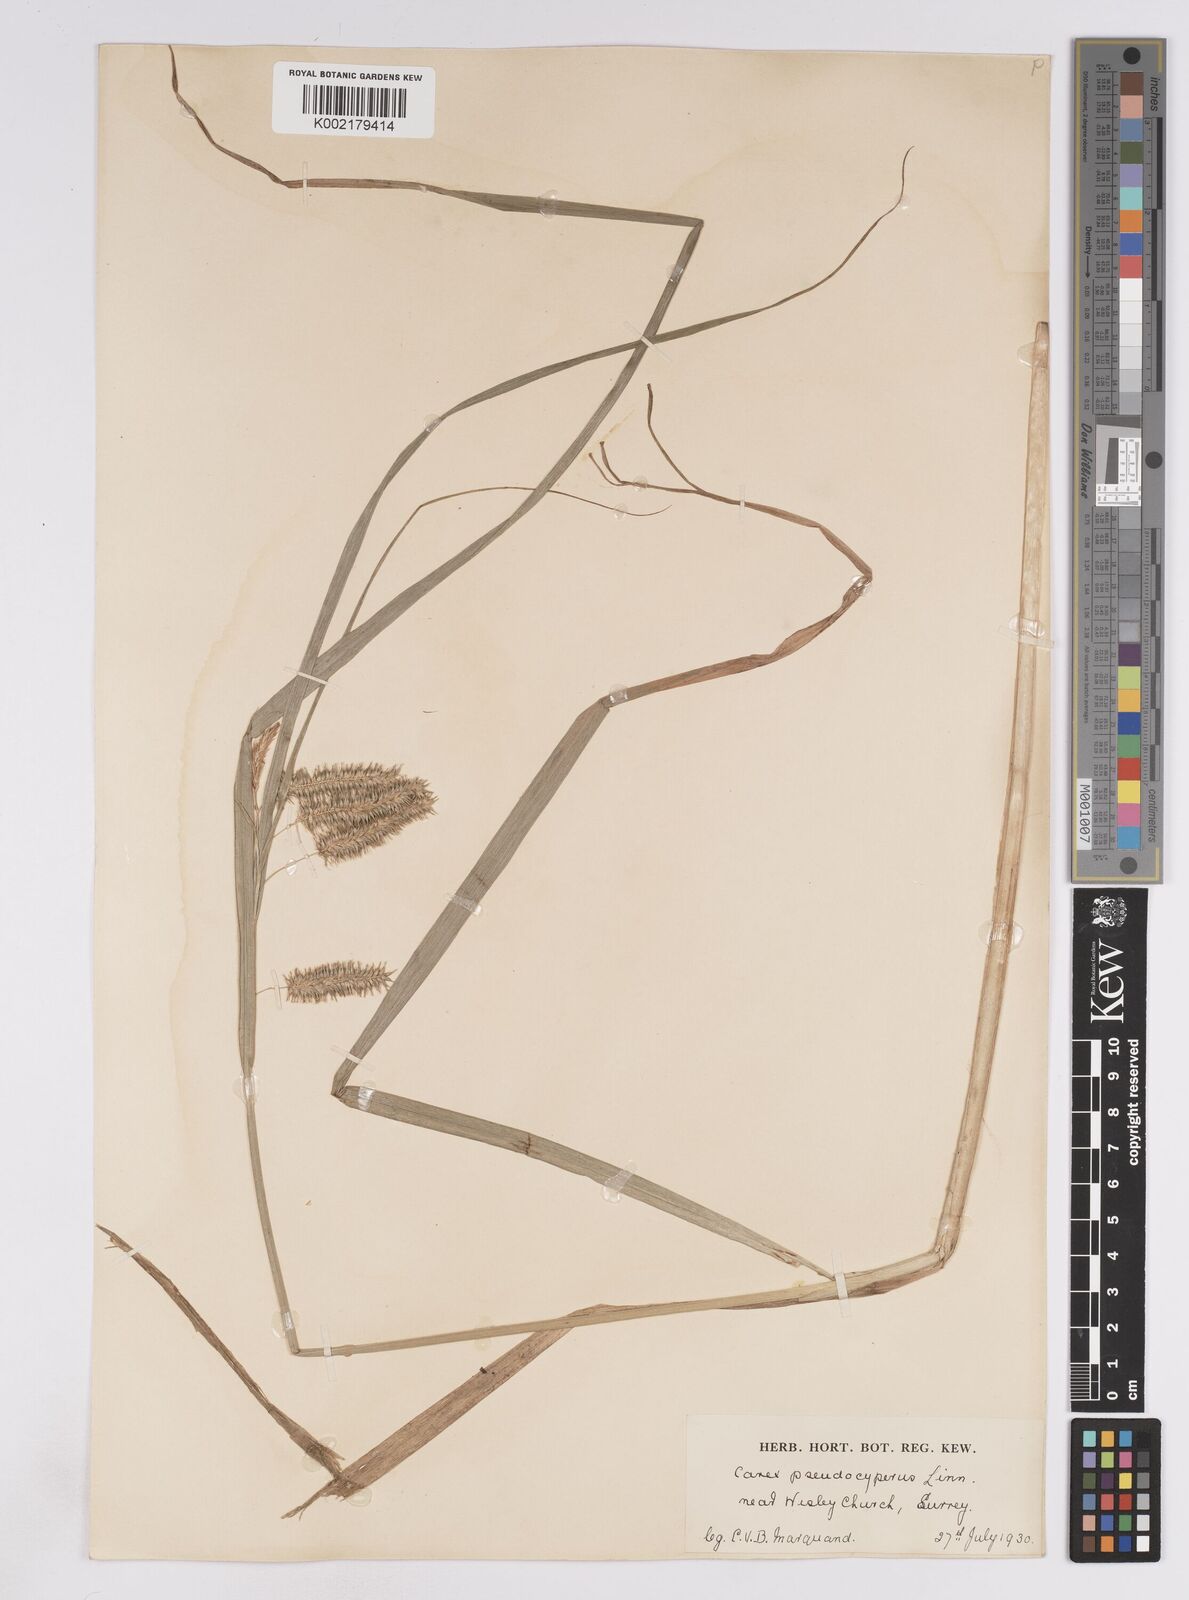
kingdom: Plantae
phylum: Tracheophyta
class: Liliopsida
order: Poales
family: Cyperaceae
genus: Carex
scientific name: Carex pseudocyperus
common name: Cyperus sedge
